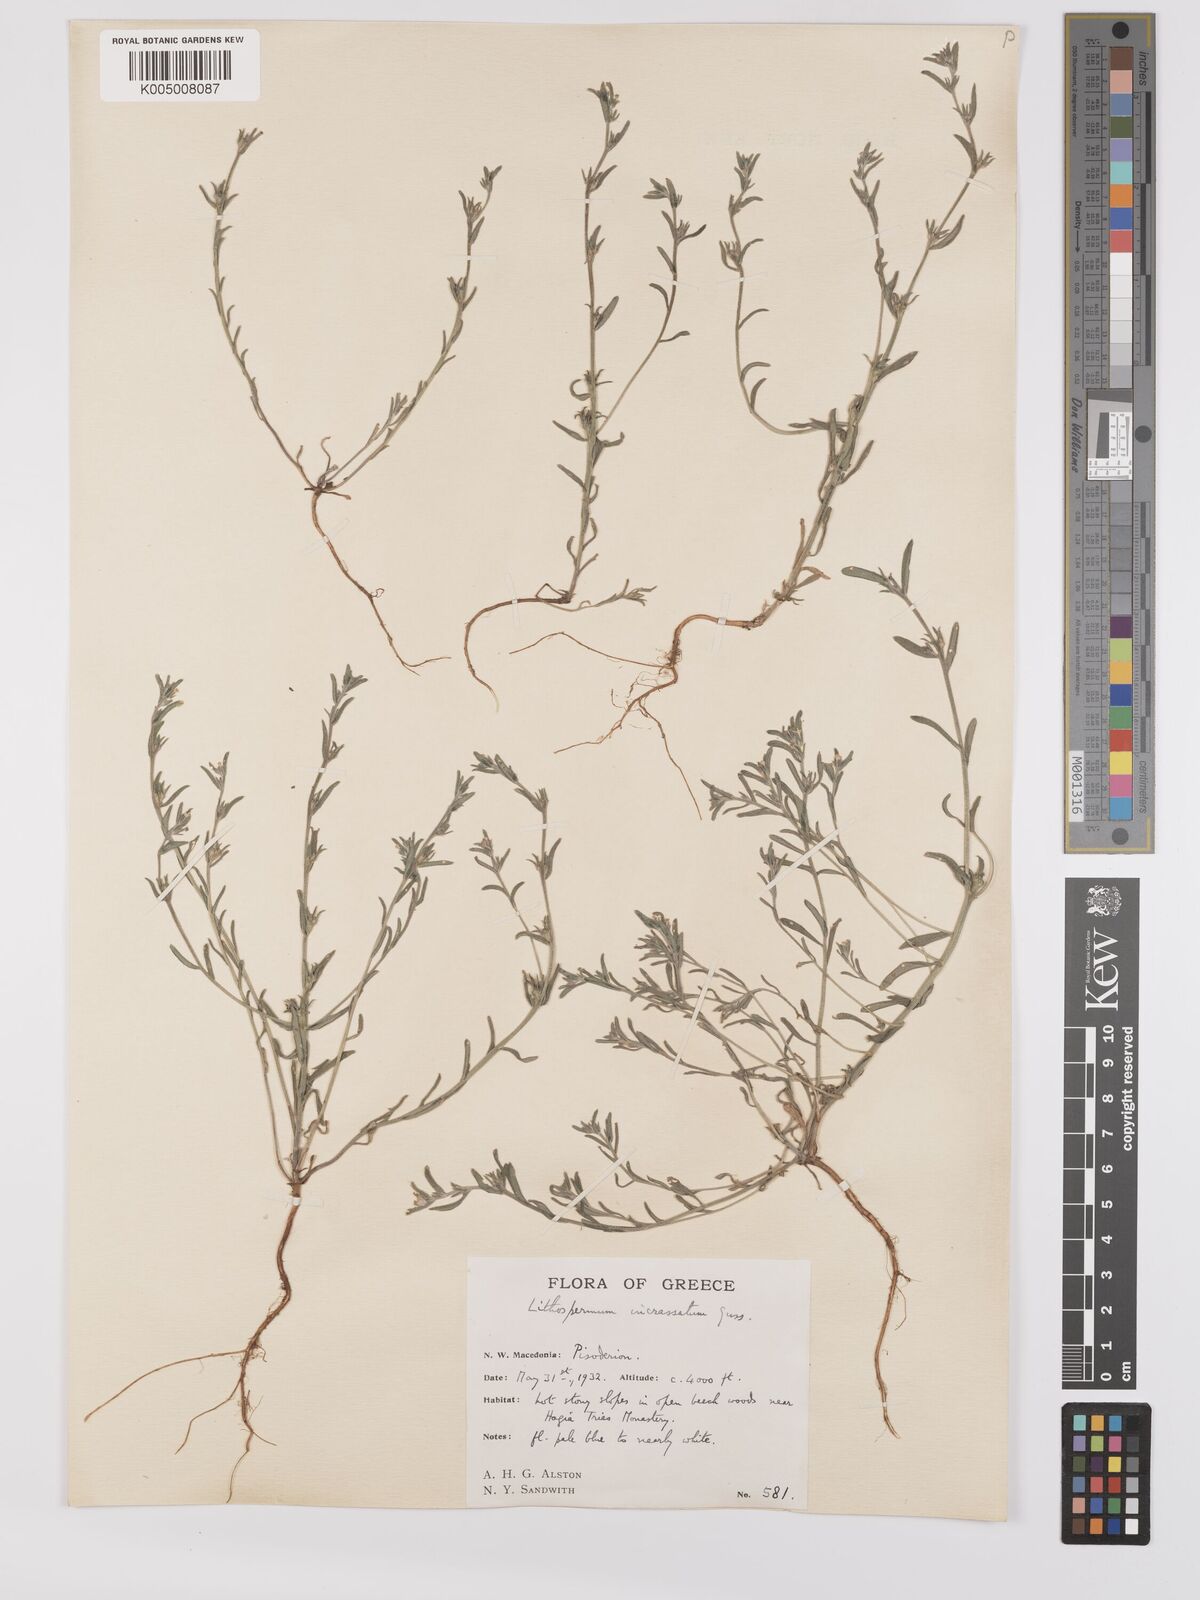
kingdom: Plantae
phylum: Tracheophyta
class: Magnoliopsida
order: Boraginales
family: Boraginaceae
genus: Buglossoides
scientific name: Buglossoides incrassata
